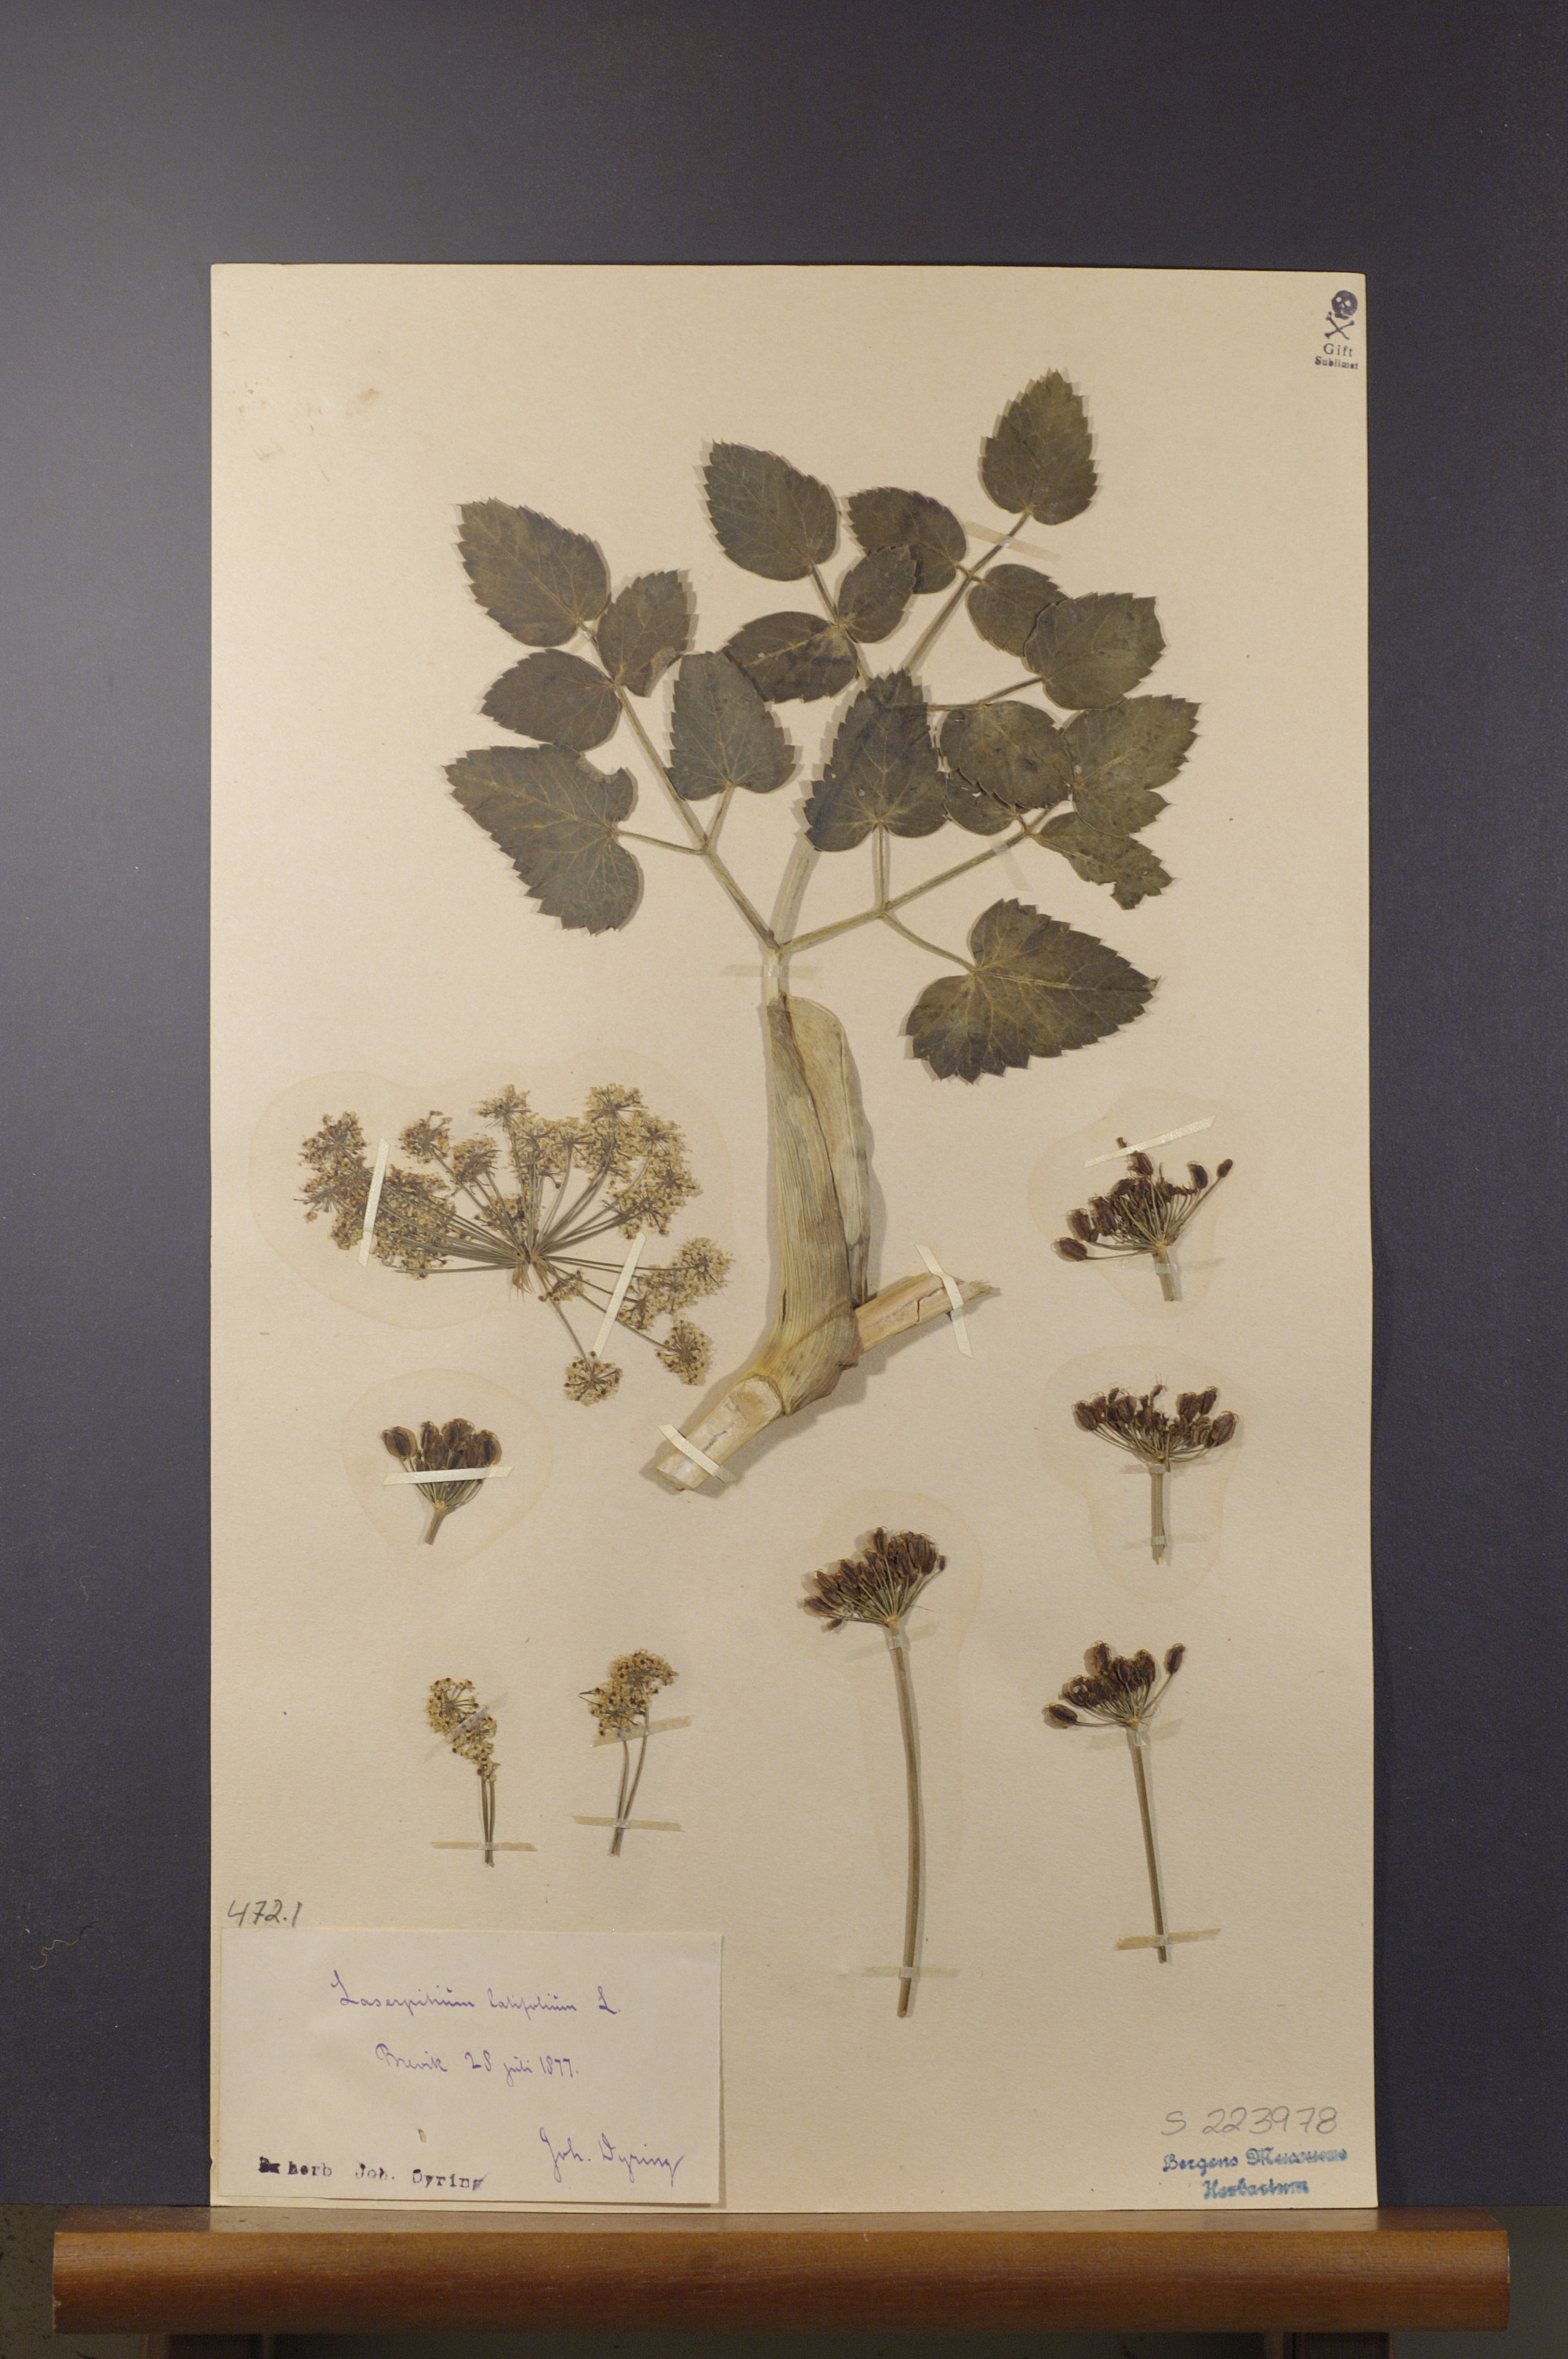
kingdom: Plantae
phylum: Tracheophyta
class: Magnoliopsida
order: Apiales
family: Apiaceae
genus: Laserpitium
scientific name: Laserpitium latifolium
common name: Broadleaf sermountain
